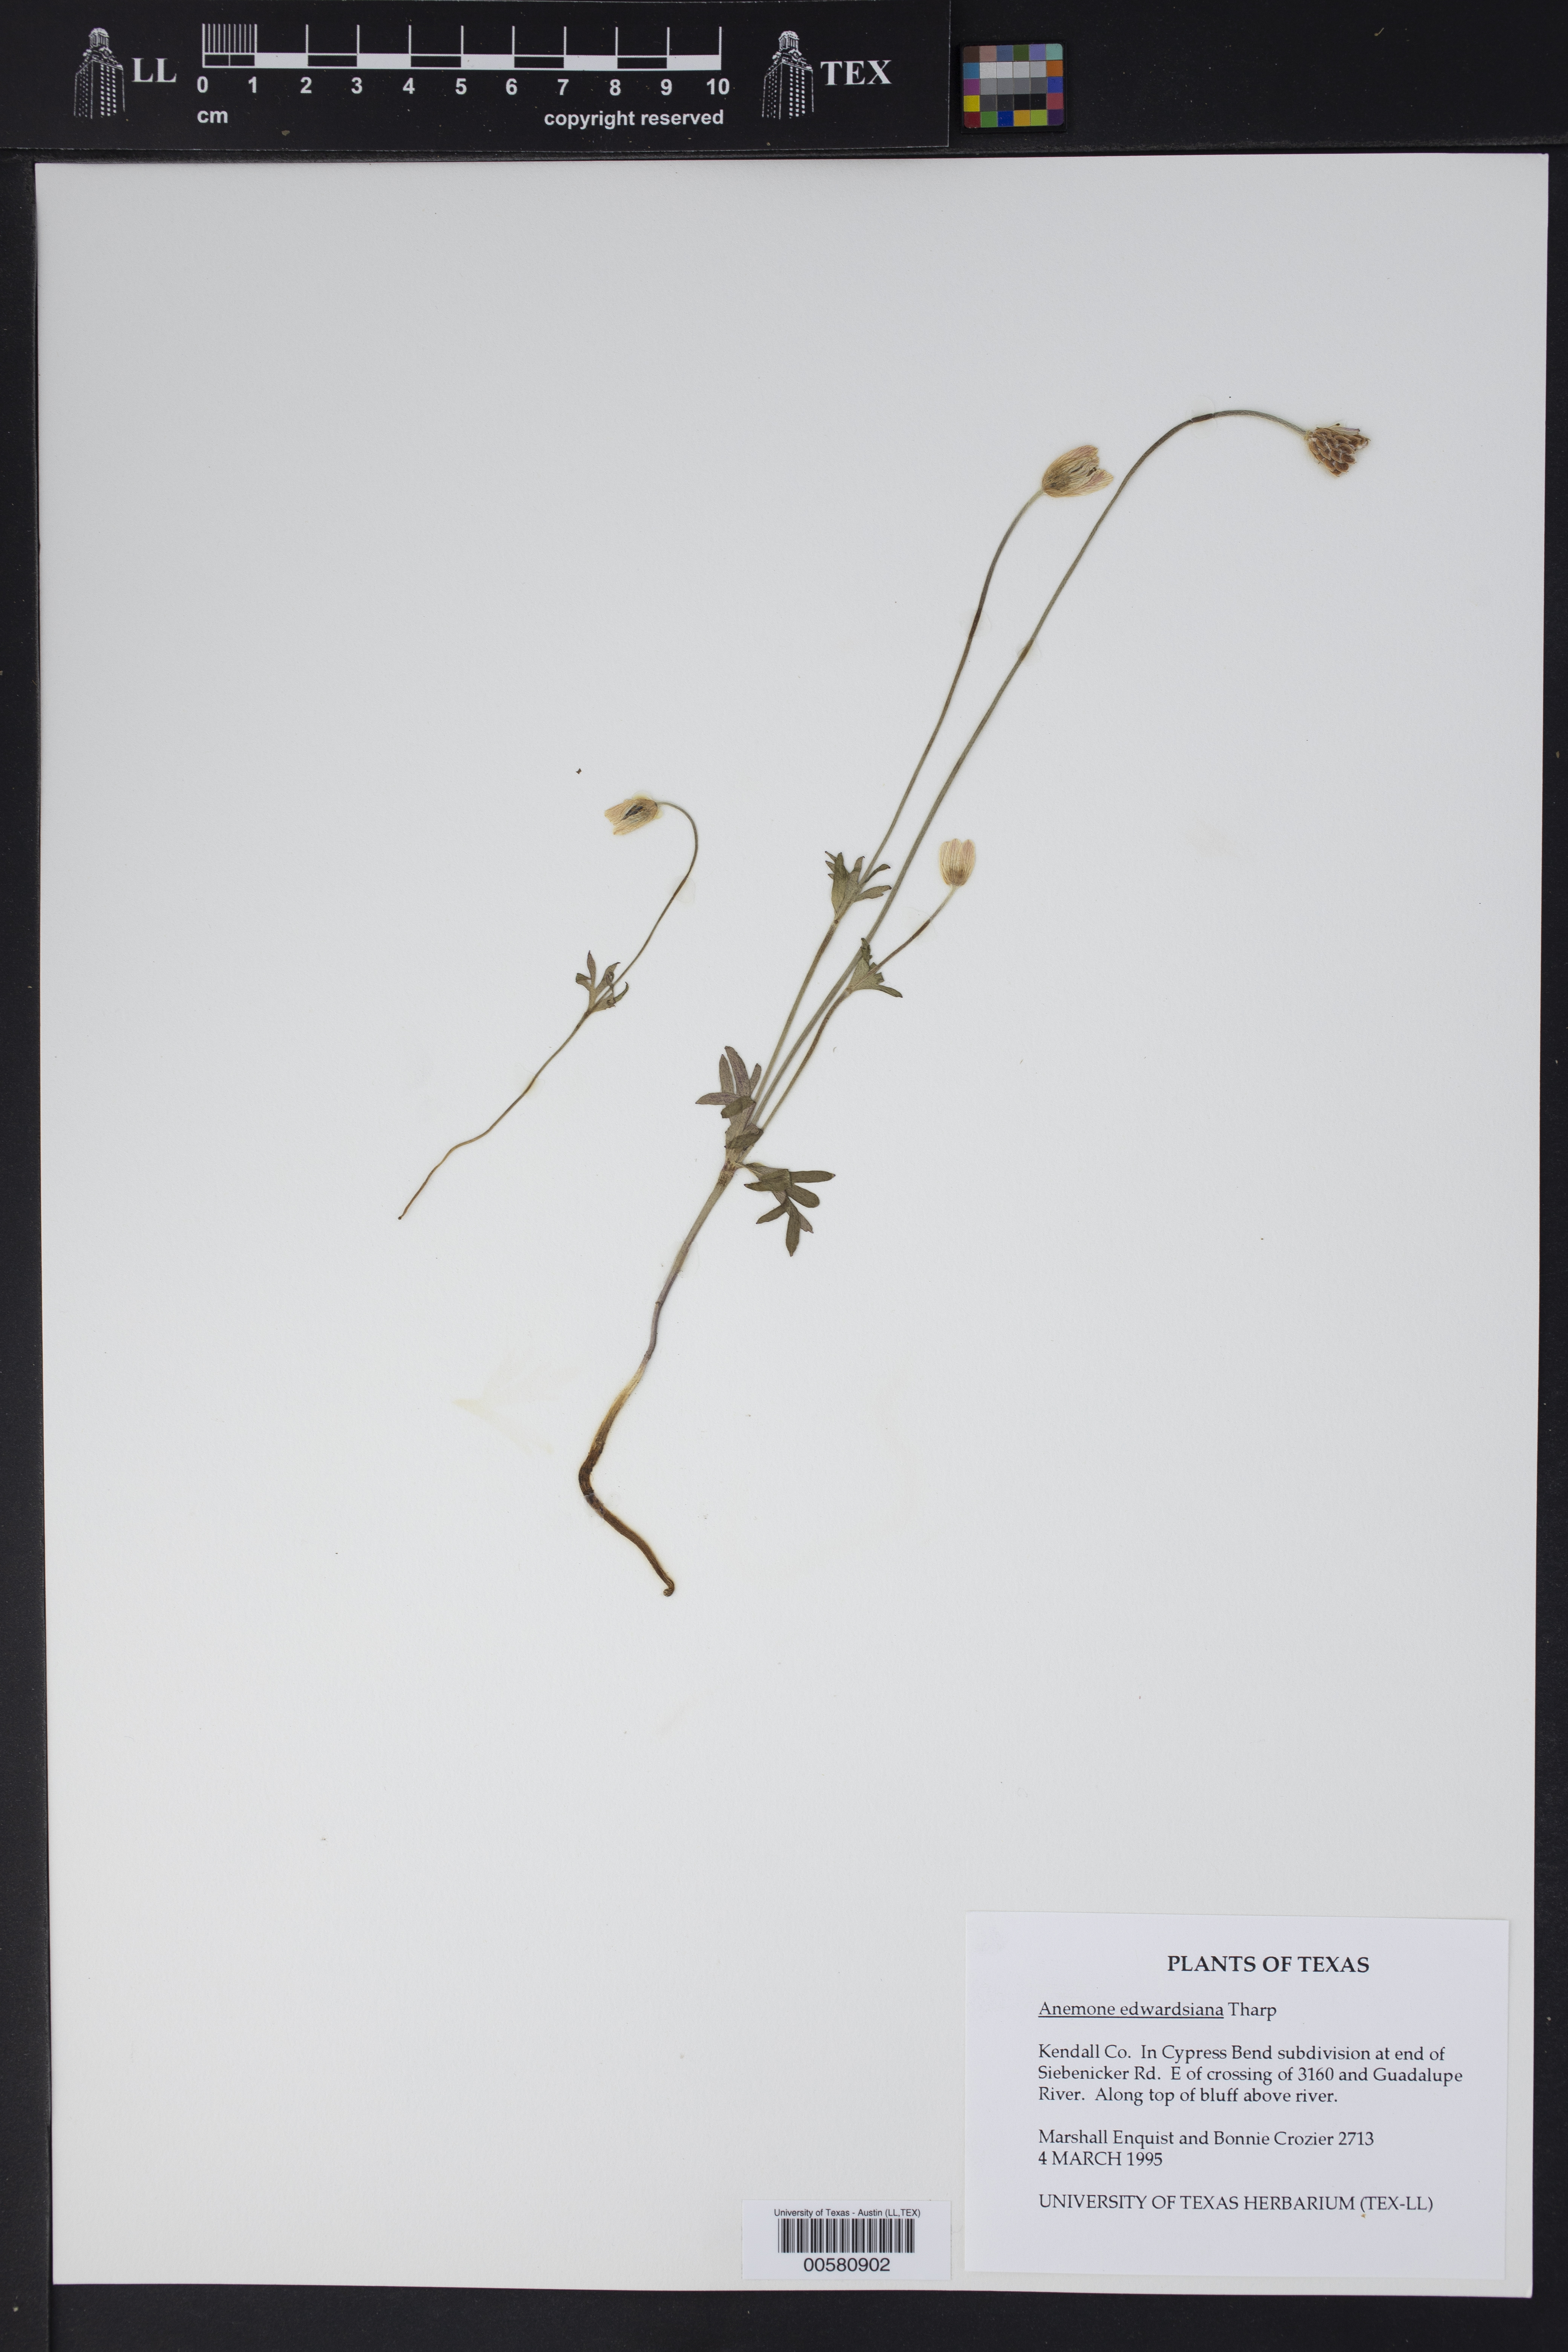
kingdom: Plantae
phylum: Tracheophyta
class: Magnoliopsida
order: Ranunculales
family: Ranunculaceae
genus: Anemone
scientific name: Anemone edwardsiana
